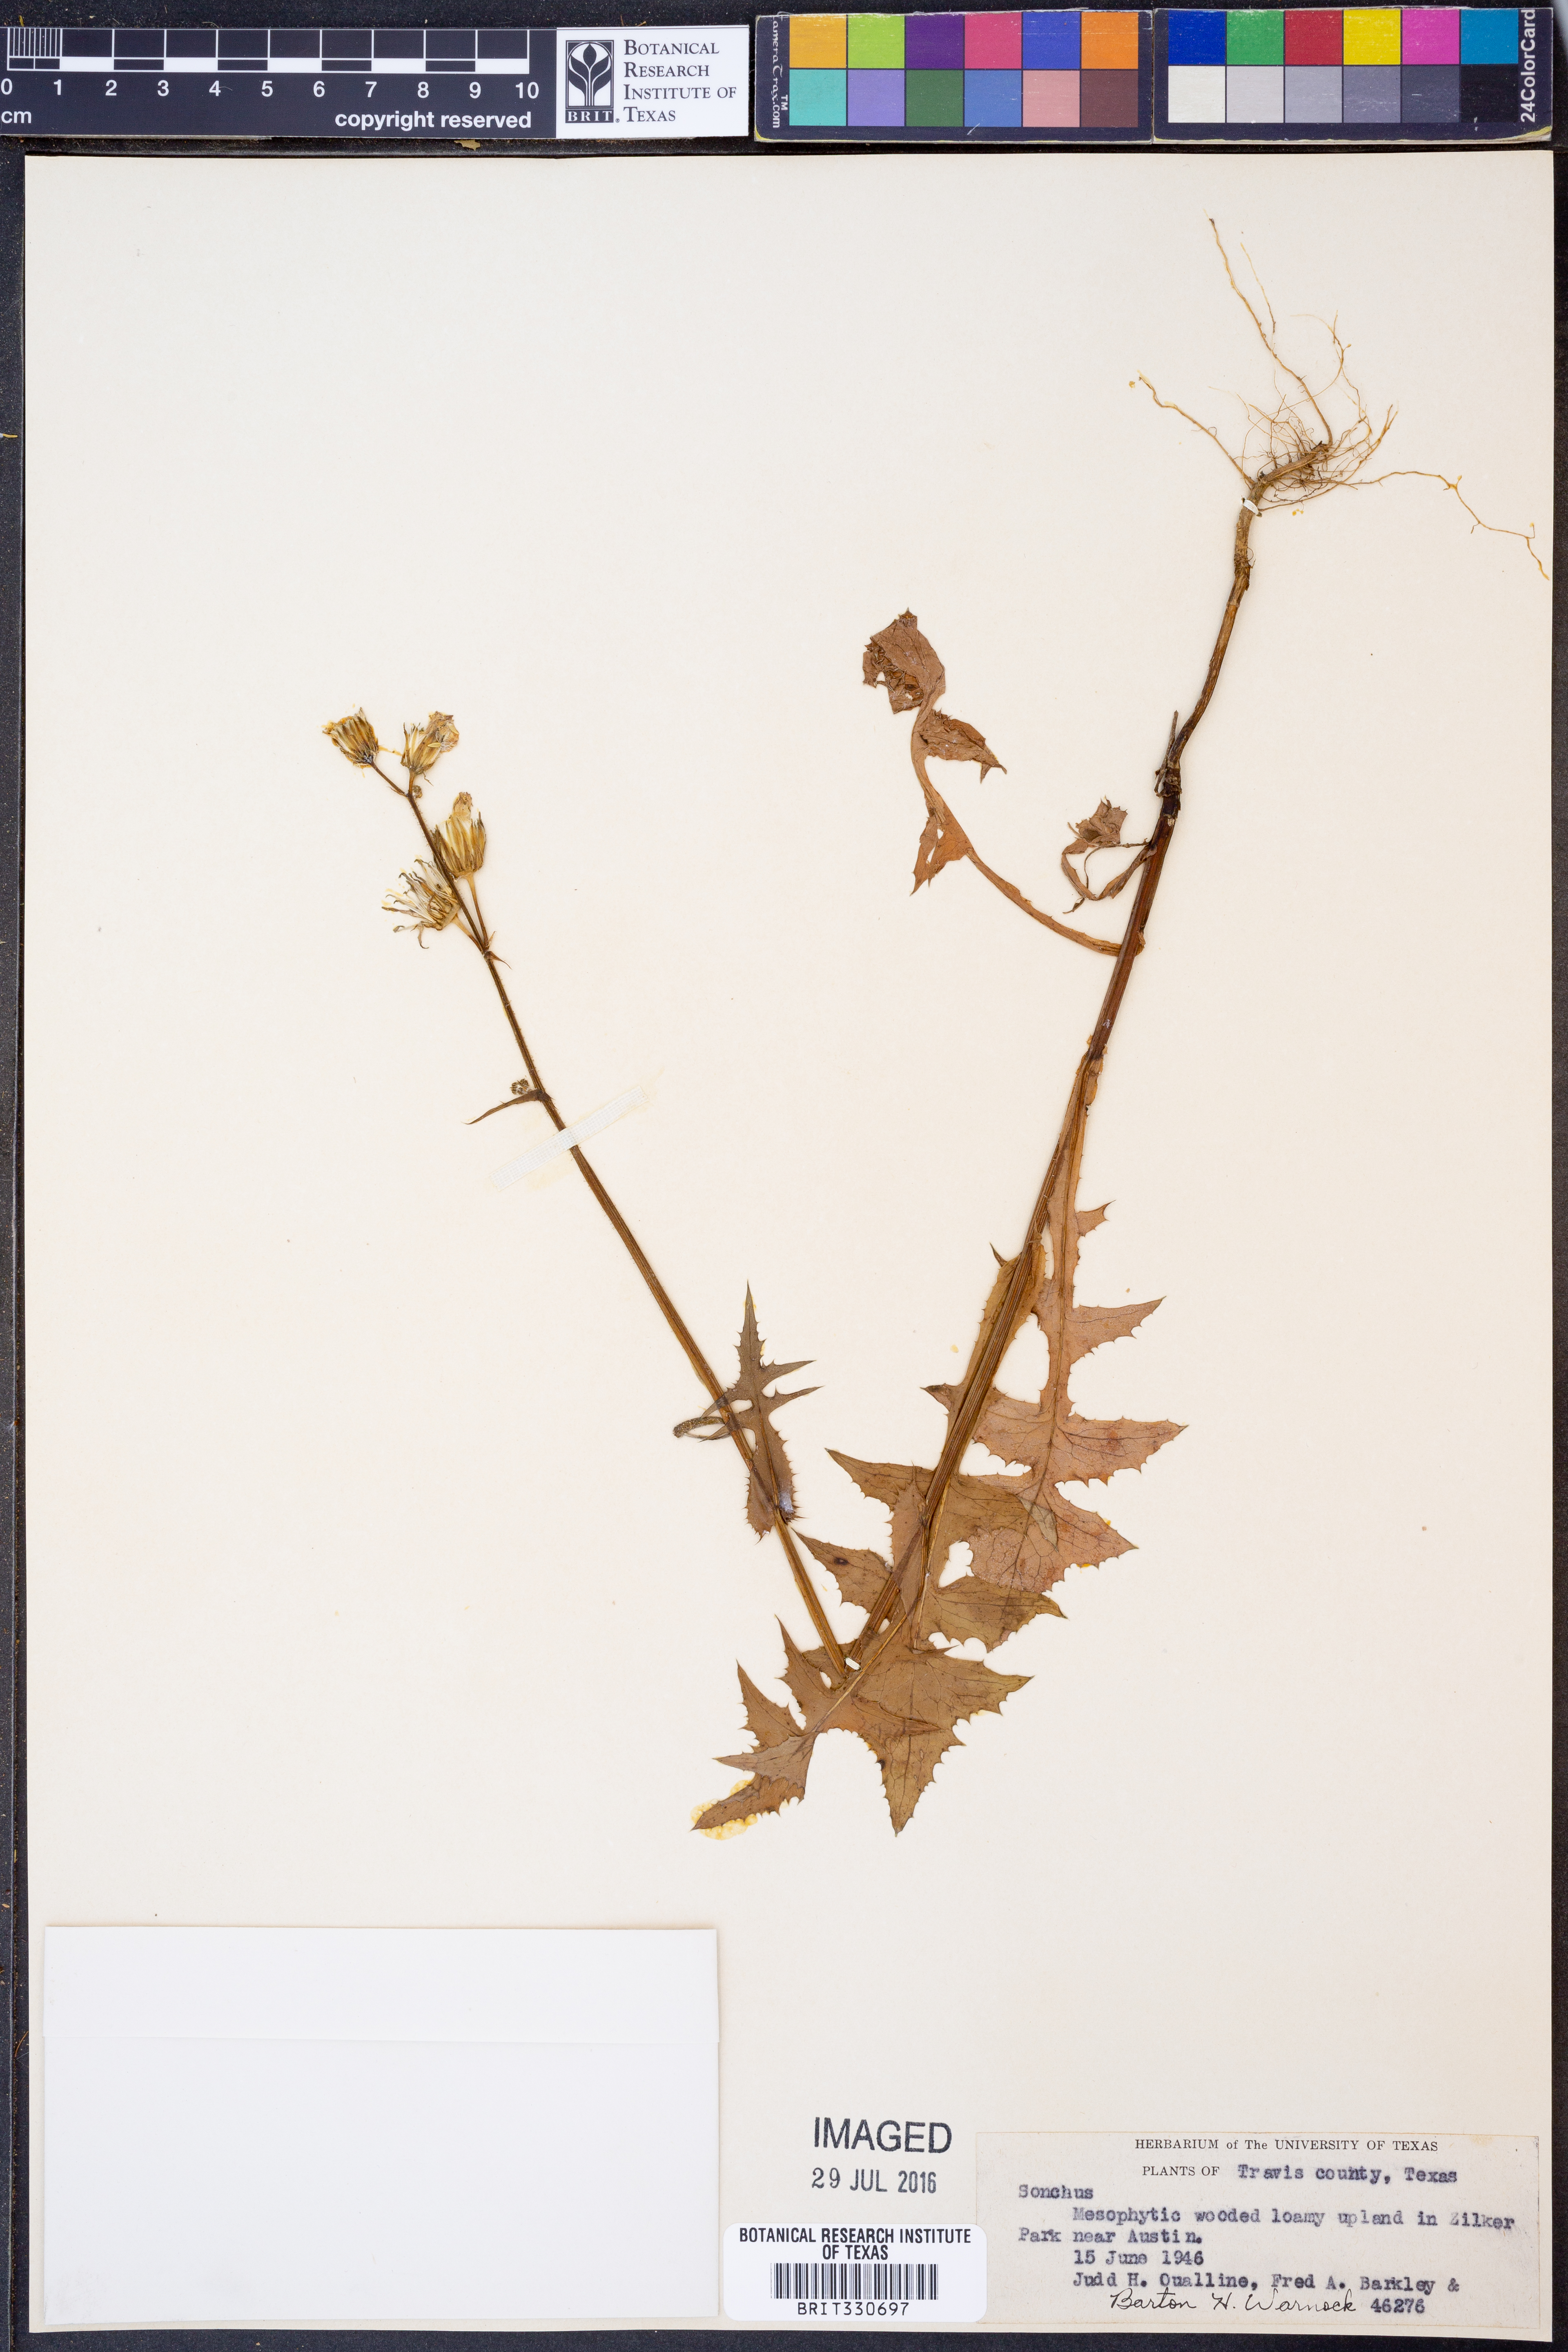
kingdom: Plantae
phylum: Tracheophyta
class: Magnoliopsida
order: Asterales
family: Asteraceae
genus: Sonchus
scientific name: Sonchus oleraceus
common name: Common sowthistle
